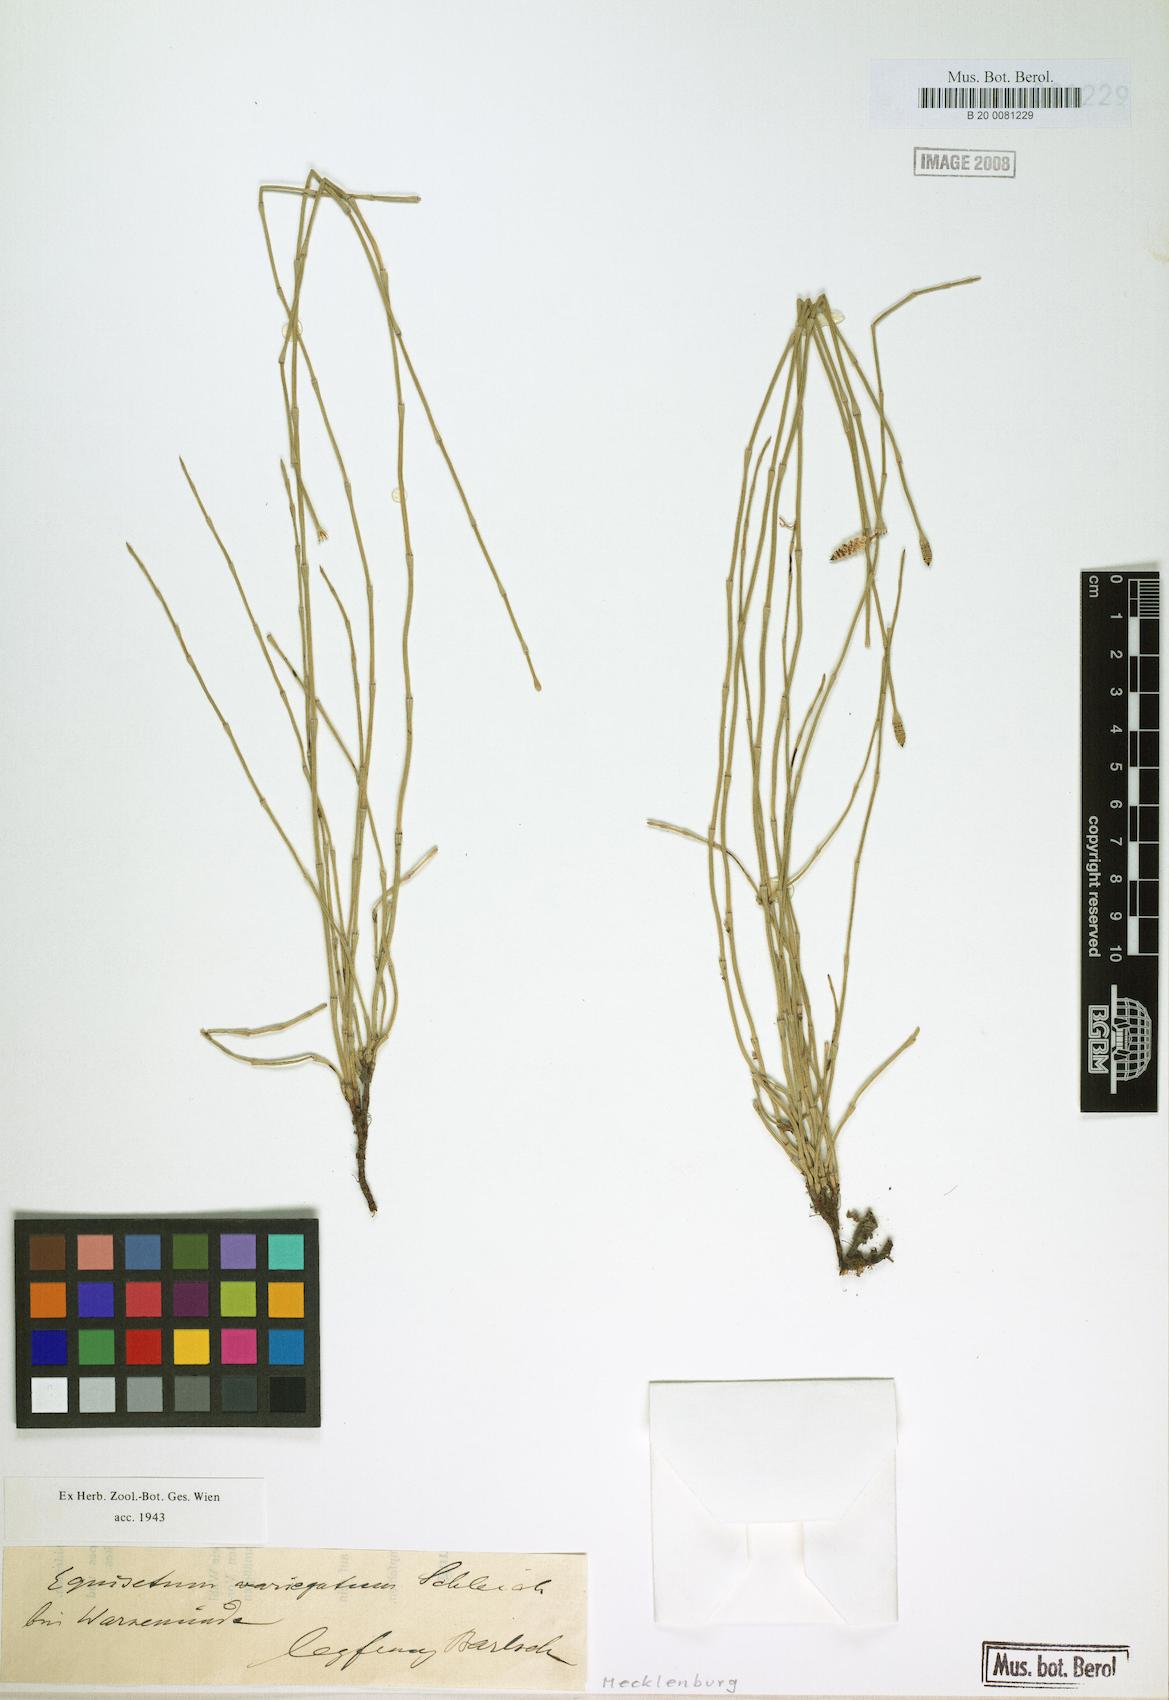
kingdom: Plantae
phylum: Tracheophyta
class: Polypodiopsida
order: Equisetales
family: Equisetaceae
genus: Equisetum
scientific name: Equisetum variegatum
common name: Variegated horsetail
